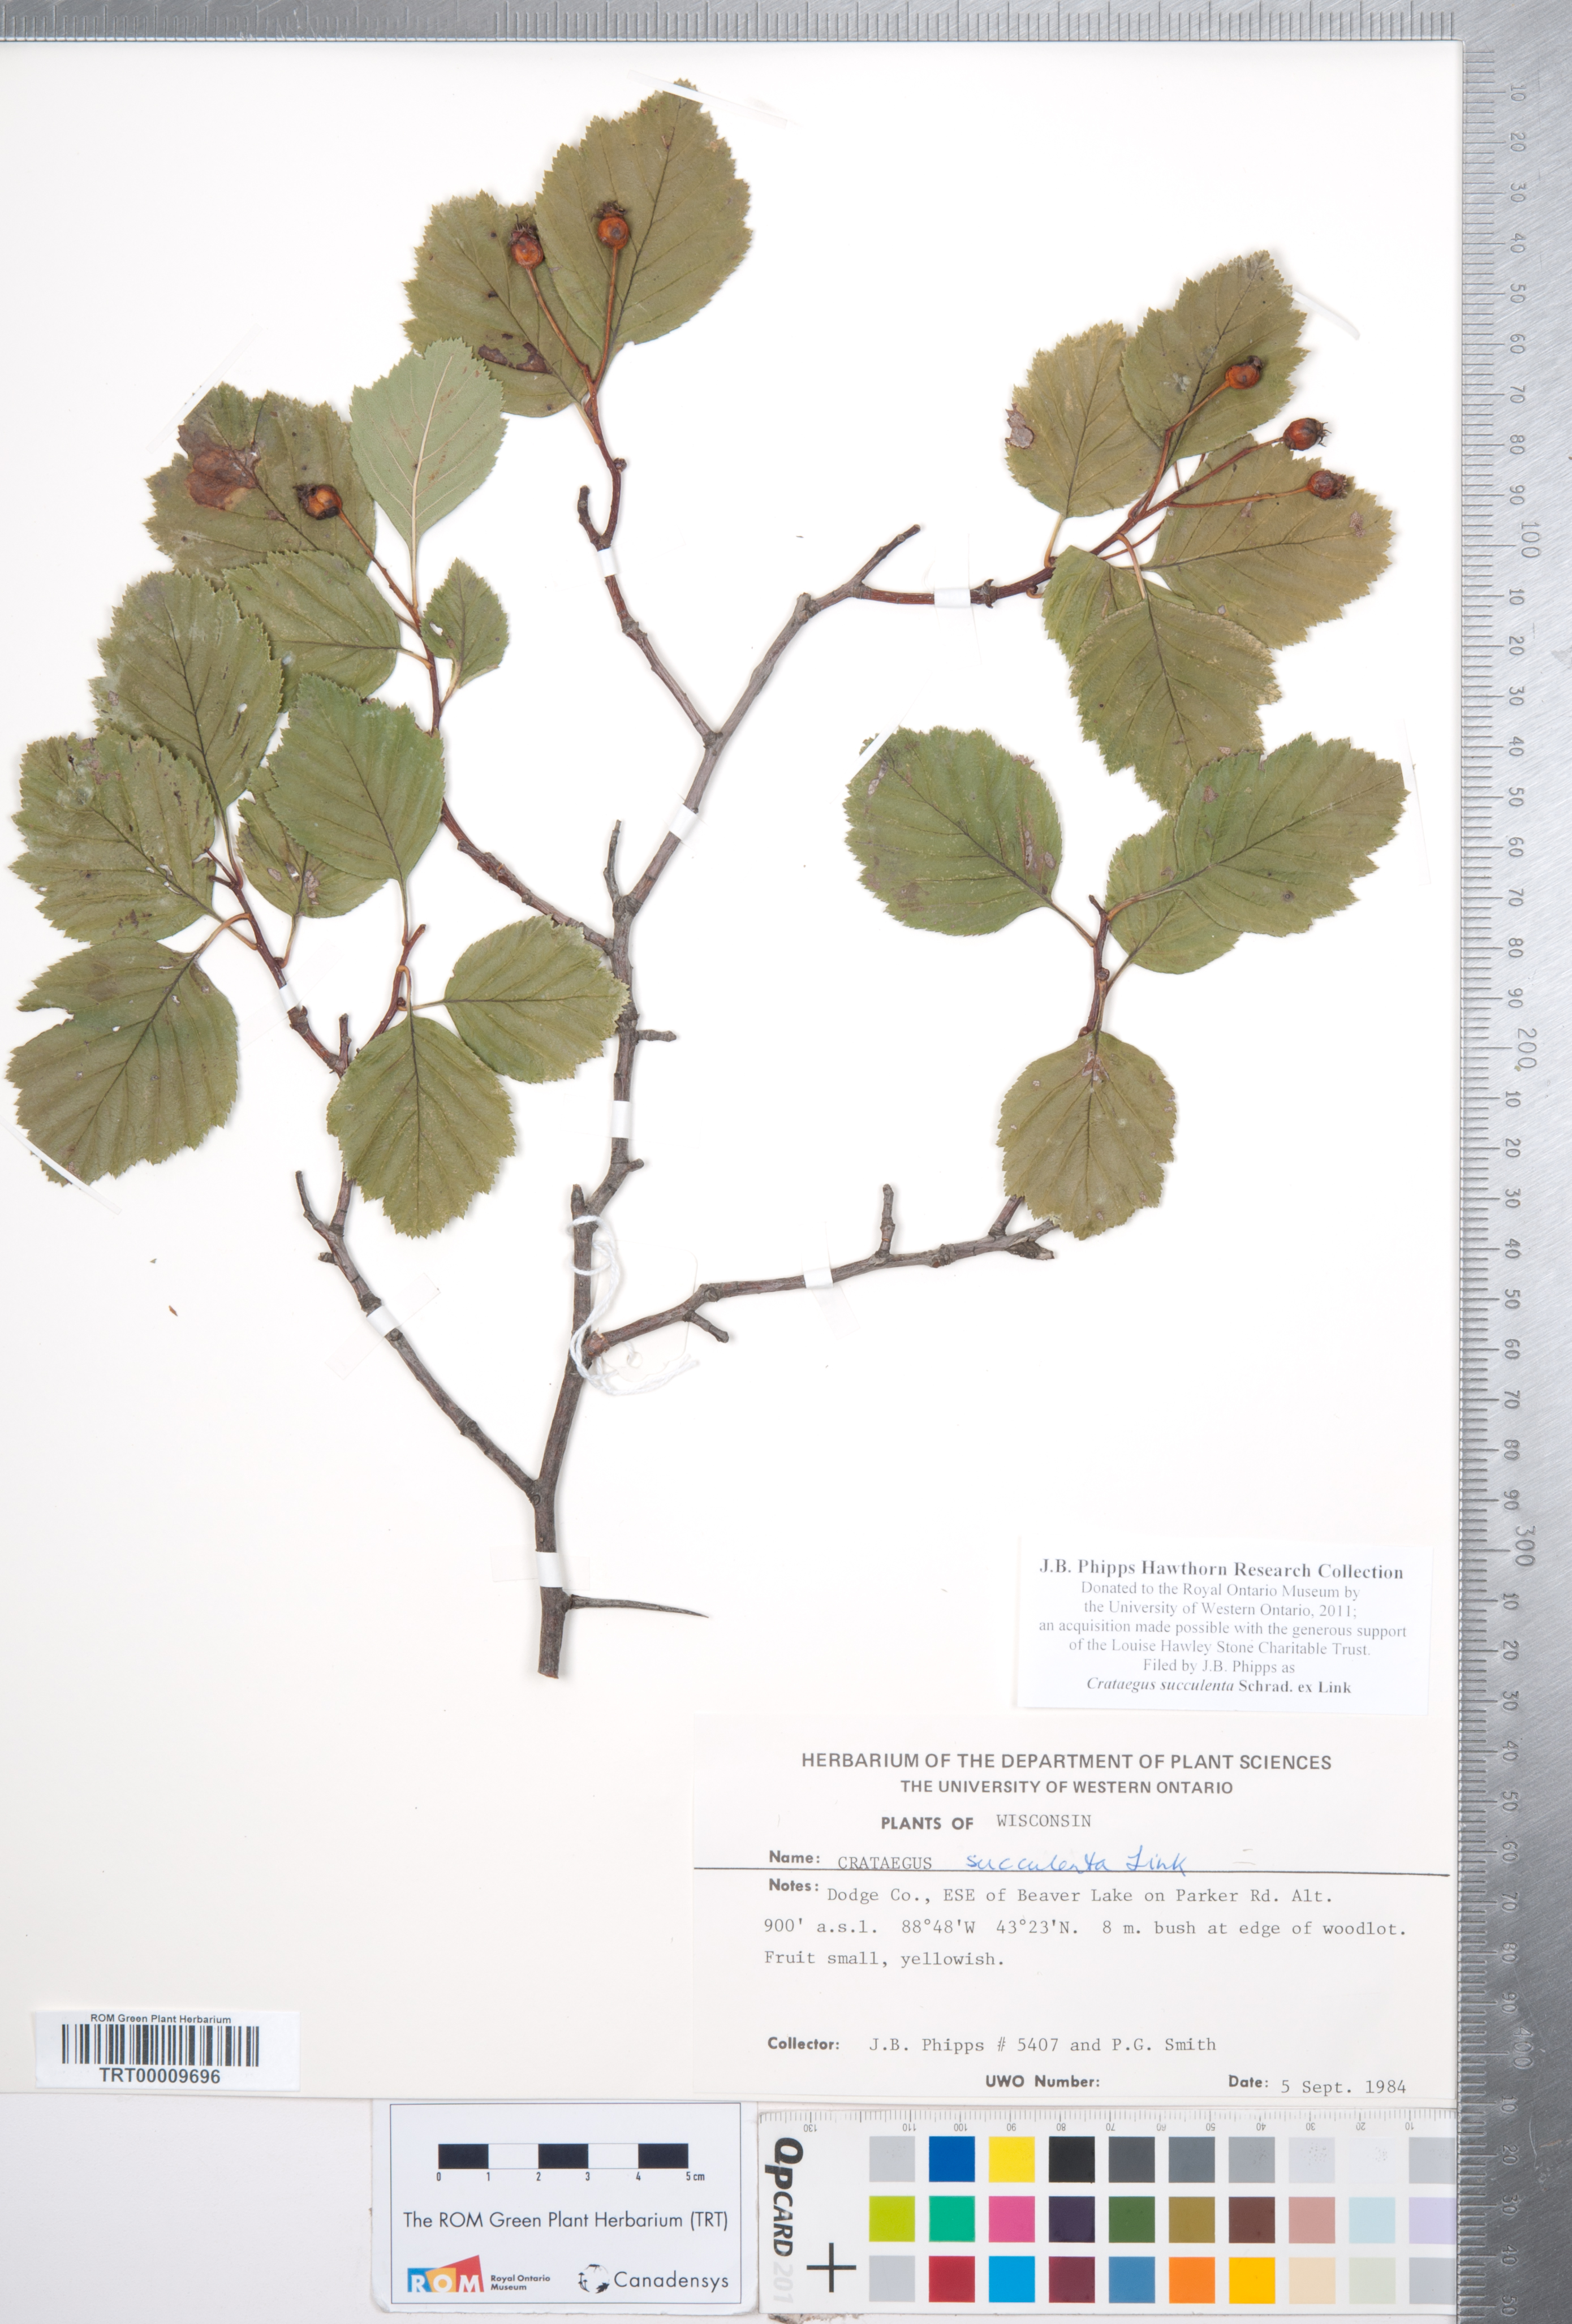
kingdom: Plantae
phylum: Tracheophyta
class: Magnoliopsida
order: Rosales
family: Rosaceae
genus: Crataegus
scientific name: Crataegus succulenta
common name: Fleshy hawthorn
